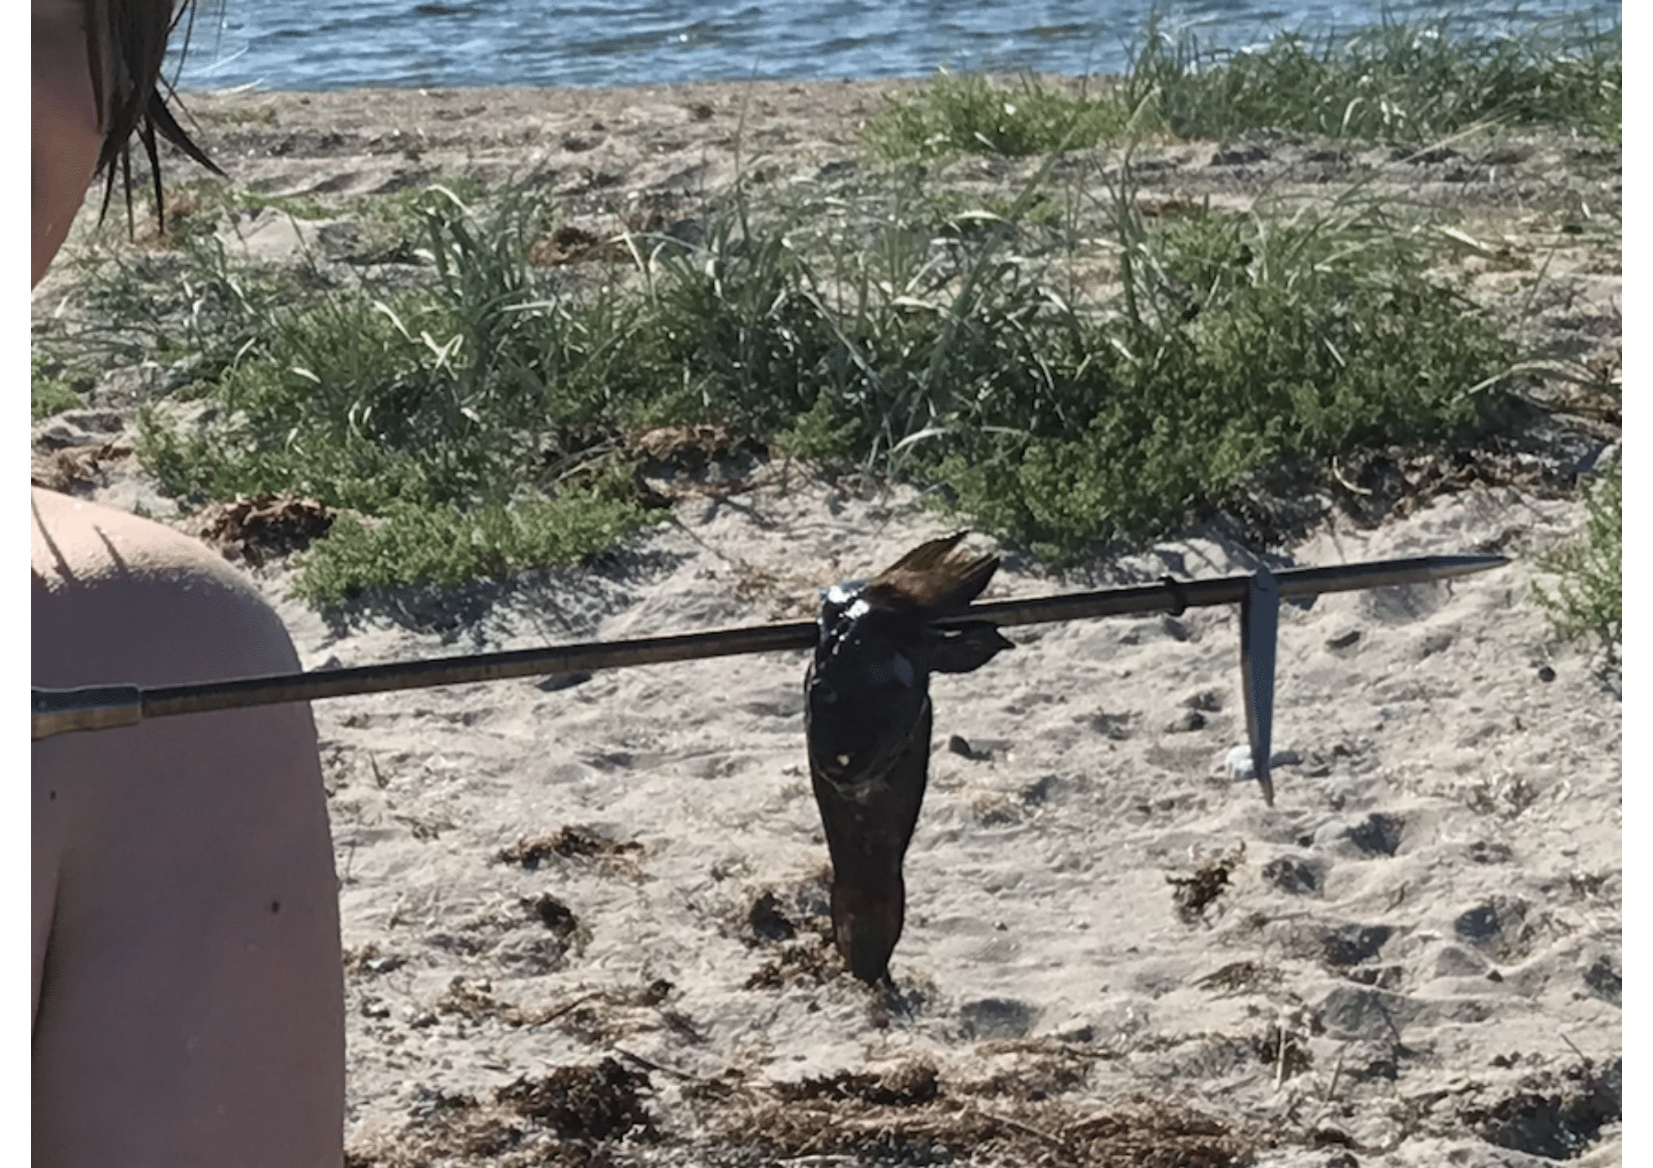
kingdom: Animalia
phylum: Chordata
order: Perciformes
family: Gobiidae
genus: Neogobius
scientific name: Neogobius melanostomus
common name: Sortmundet kutling
